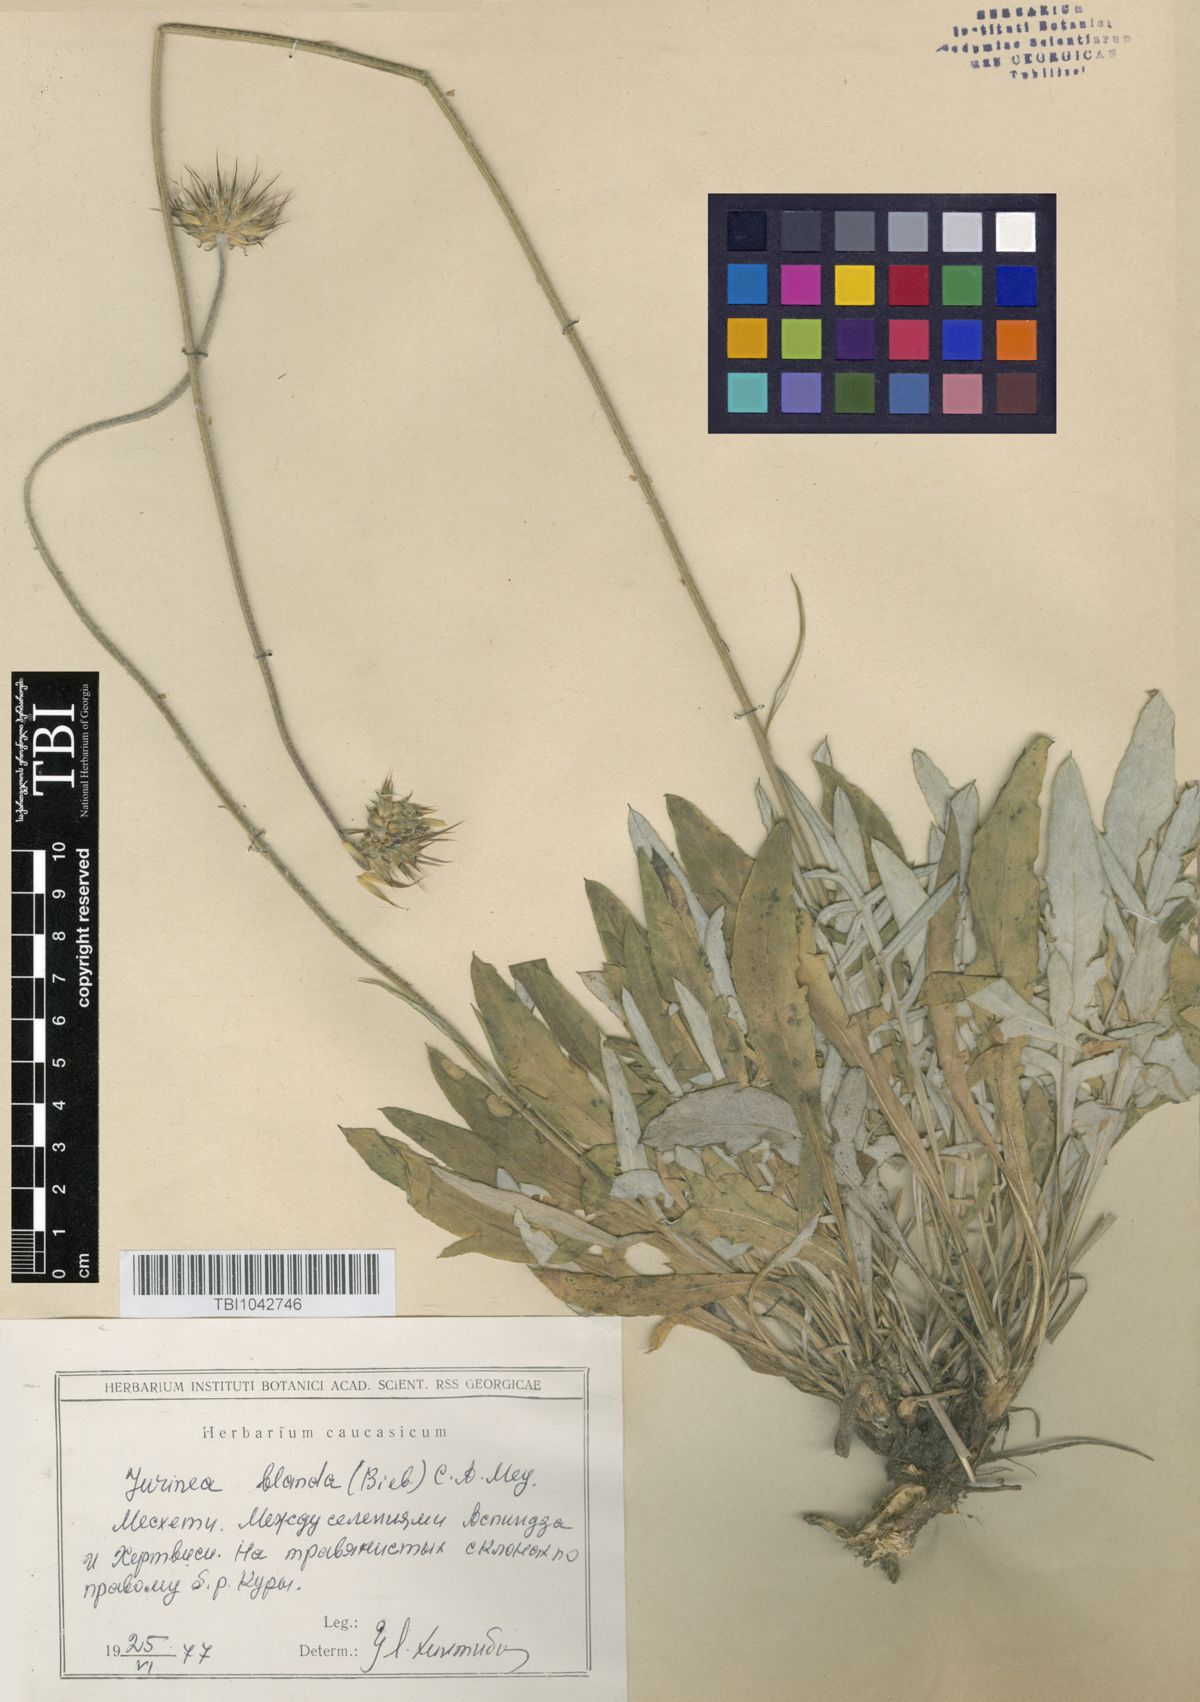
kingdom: Plantae
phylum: Tracheophyta
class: Magnoliopsida
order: Asterales
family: Asteraceae
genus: Jurinea
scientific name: Jurinea blanda
